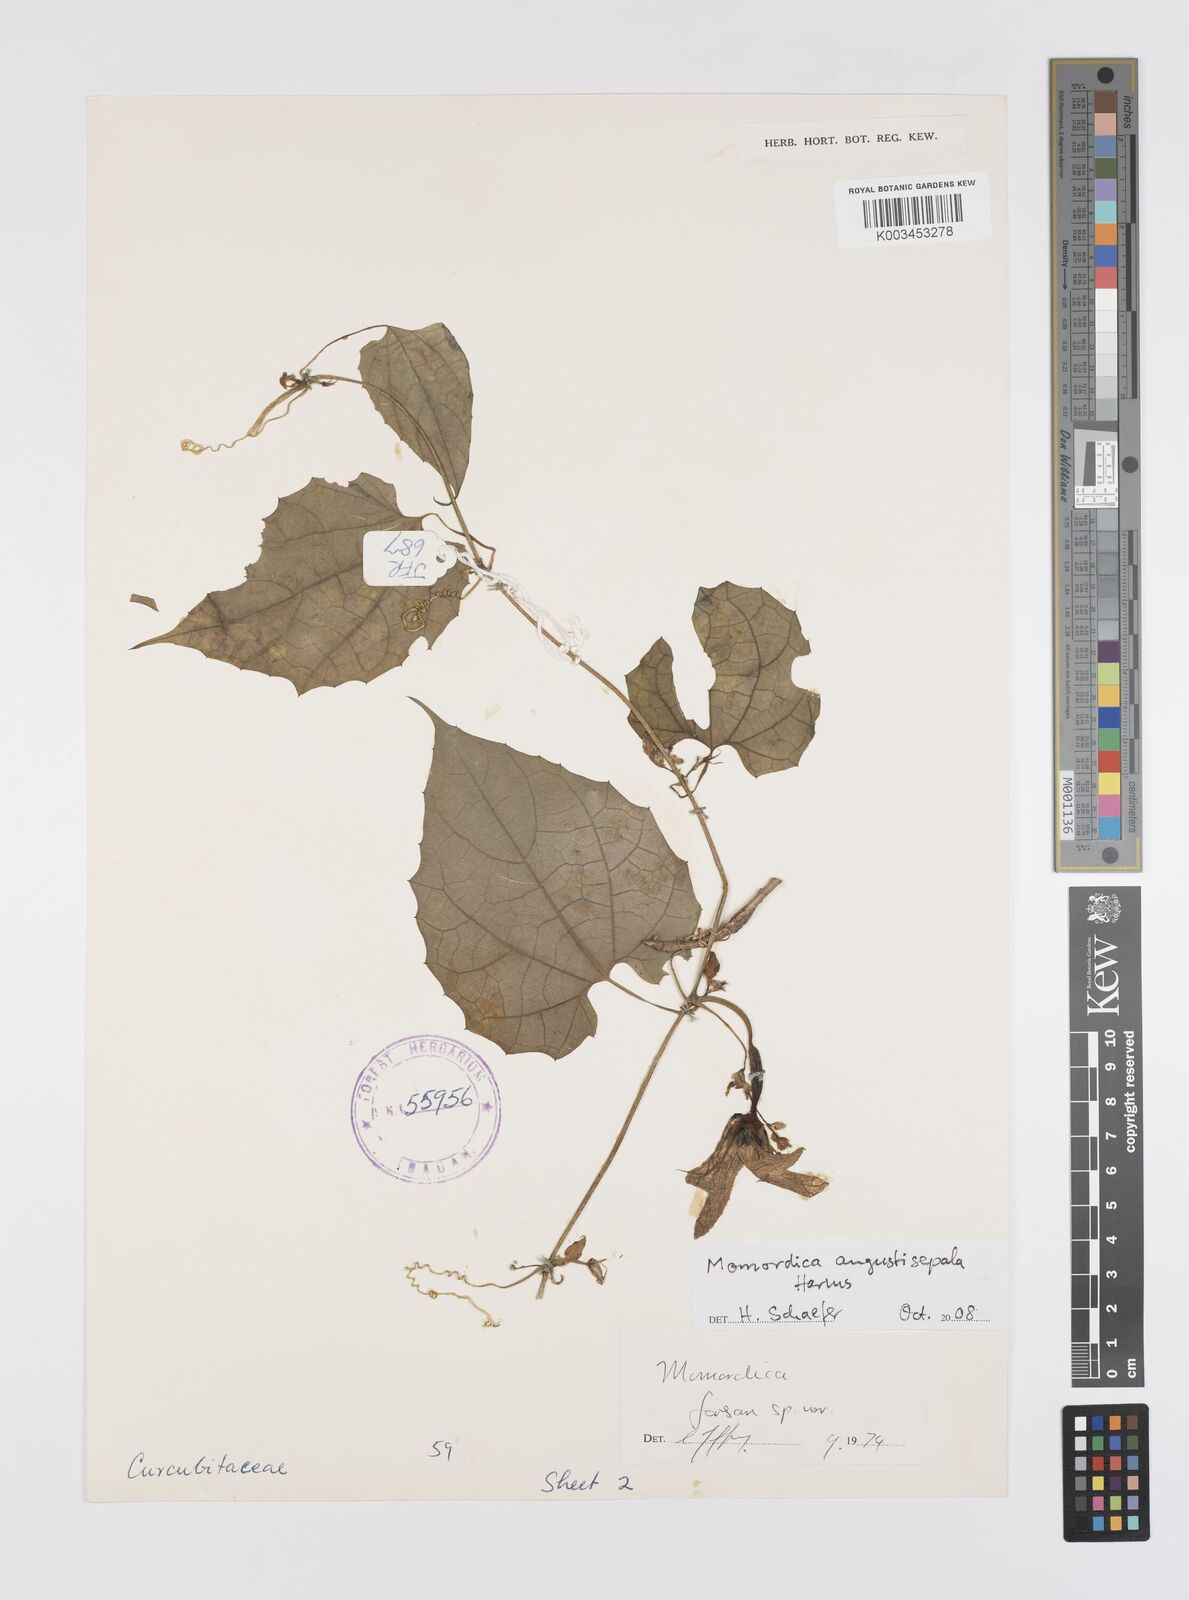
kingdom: Plantae
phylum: Tracheophyta
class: Magnoliopsida
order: Cucurbitales
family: Cucurbitaceae
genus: Momordica
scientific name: Momordica angustisepala
